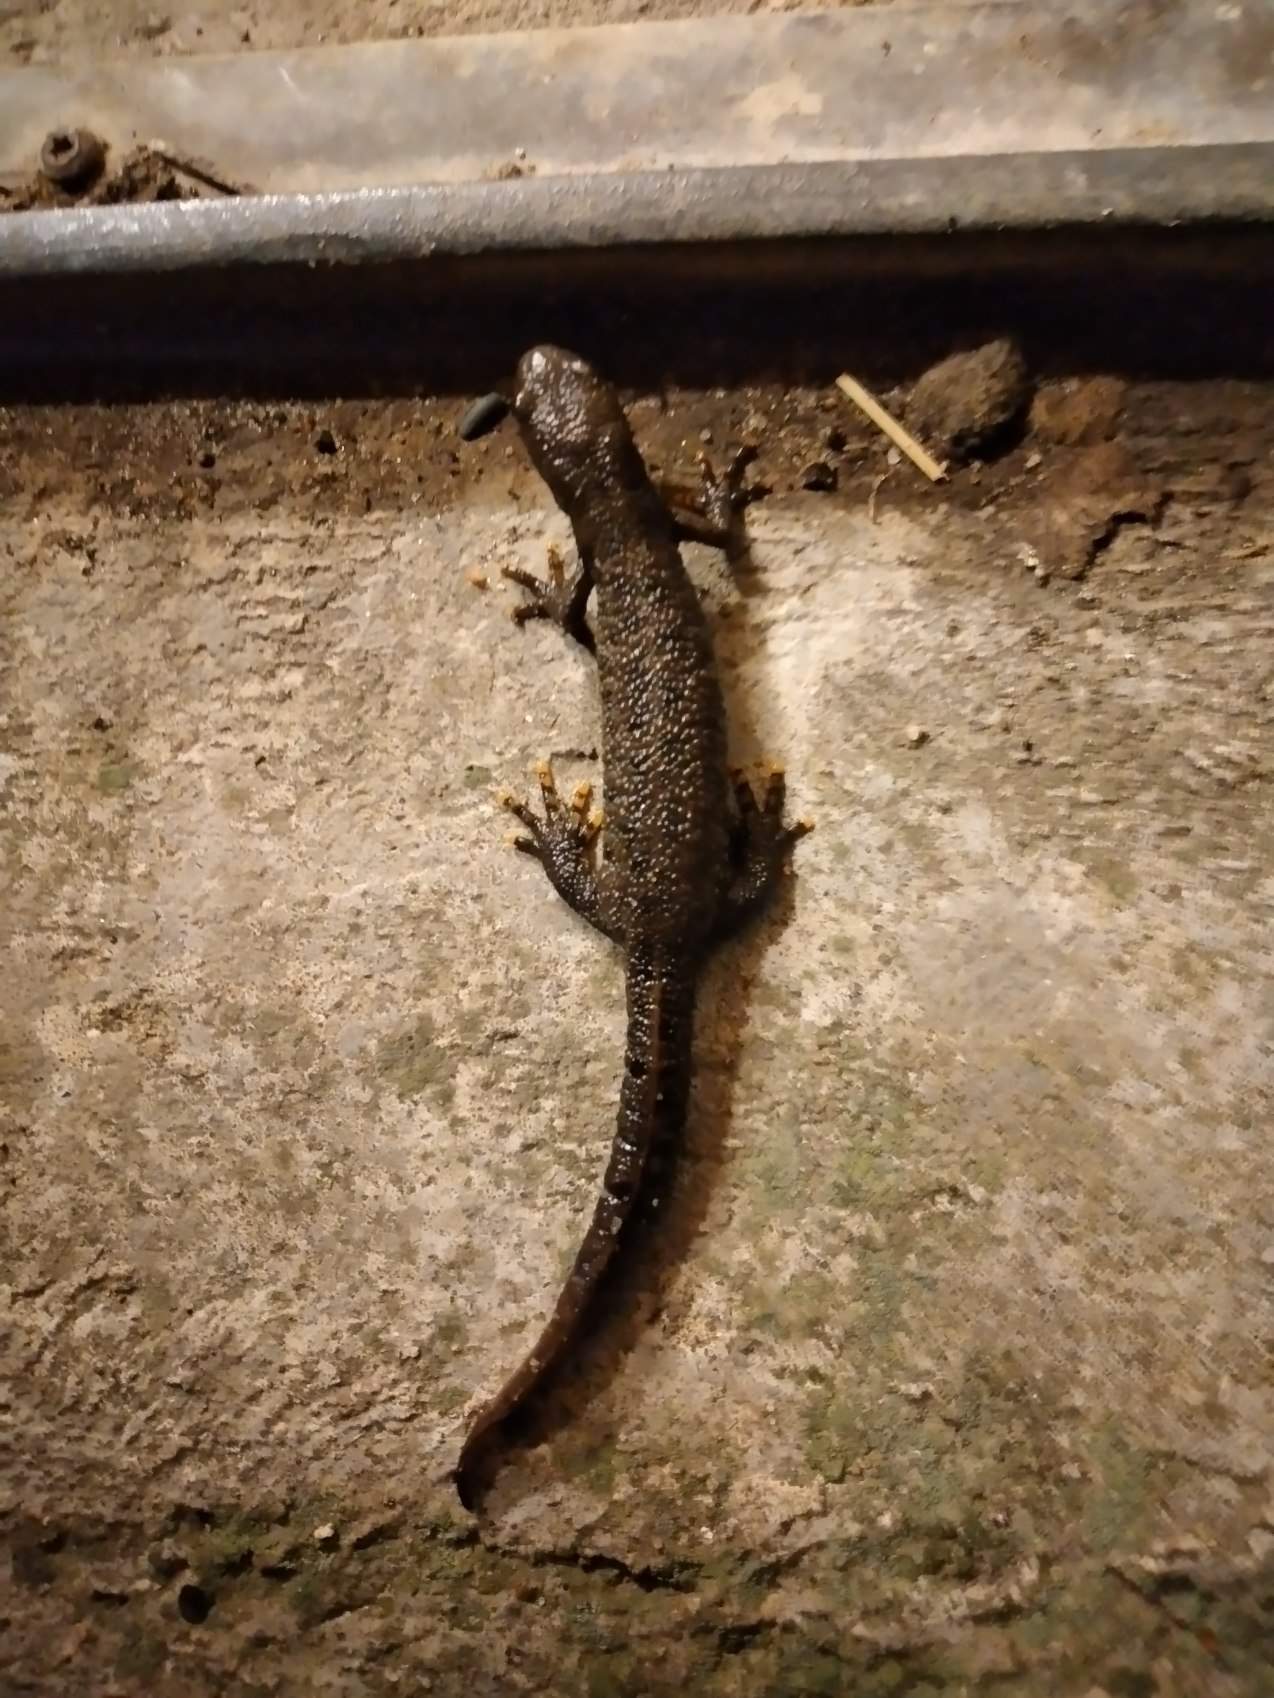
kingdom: Animalia
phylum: Chordata
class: Amphibia
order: Caudata
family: Salamandridae
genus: Triturus
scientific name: Triturus cristatus
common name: Stor vandsalamander
